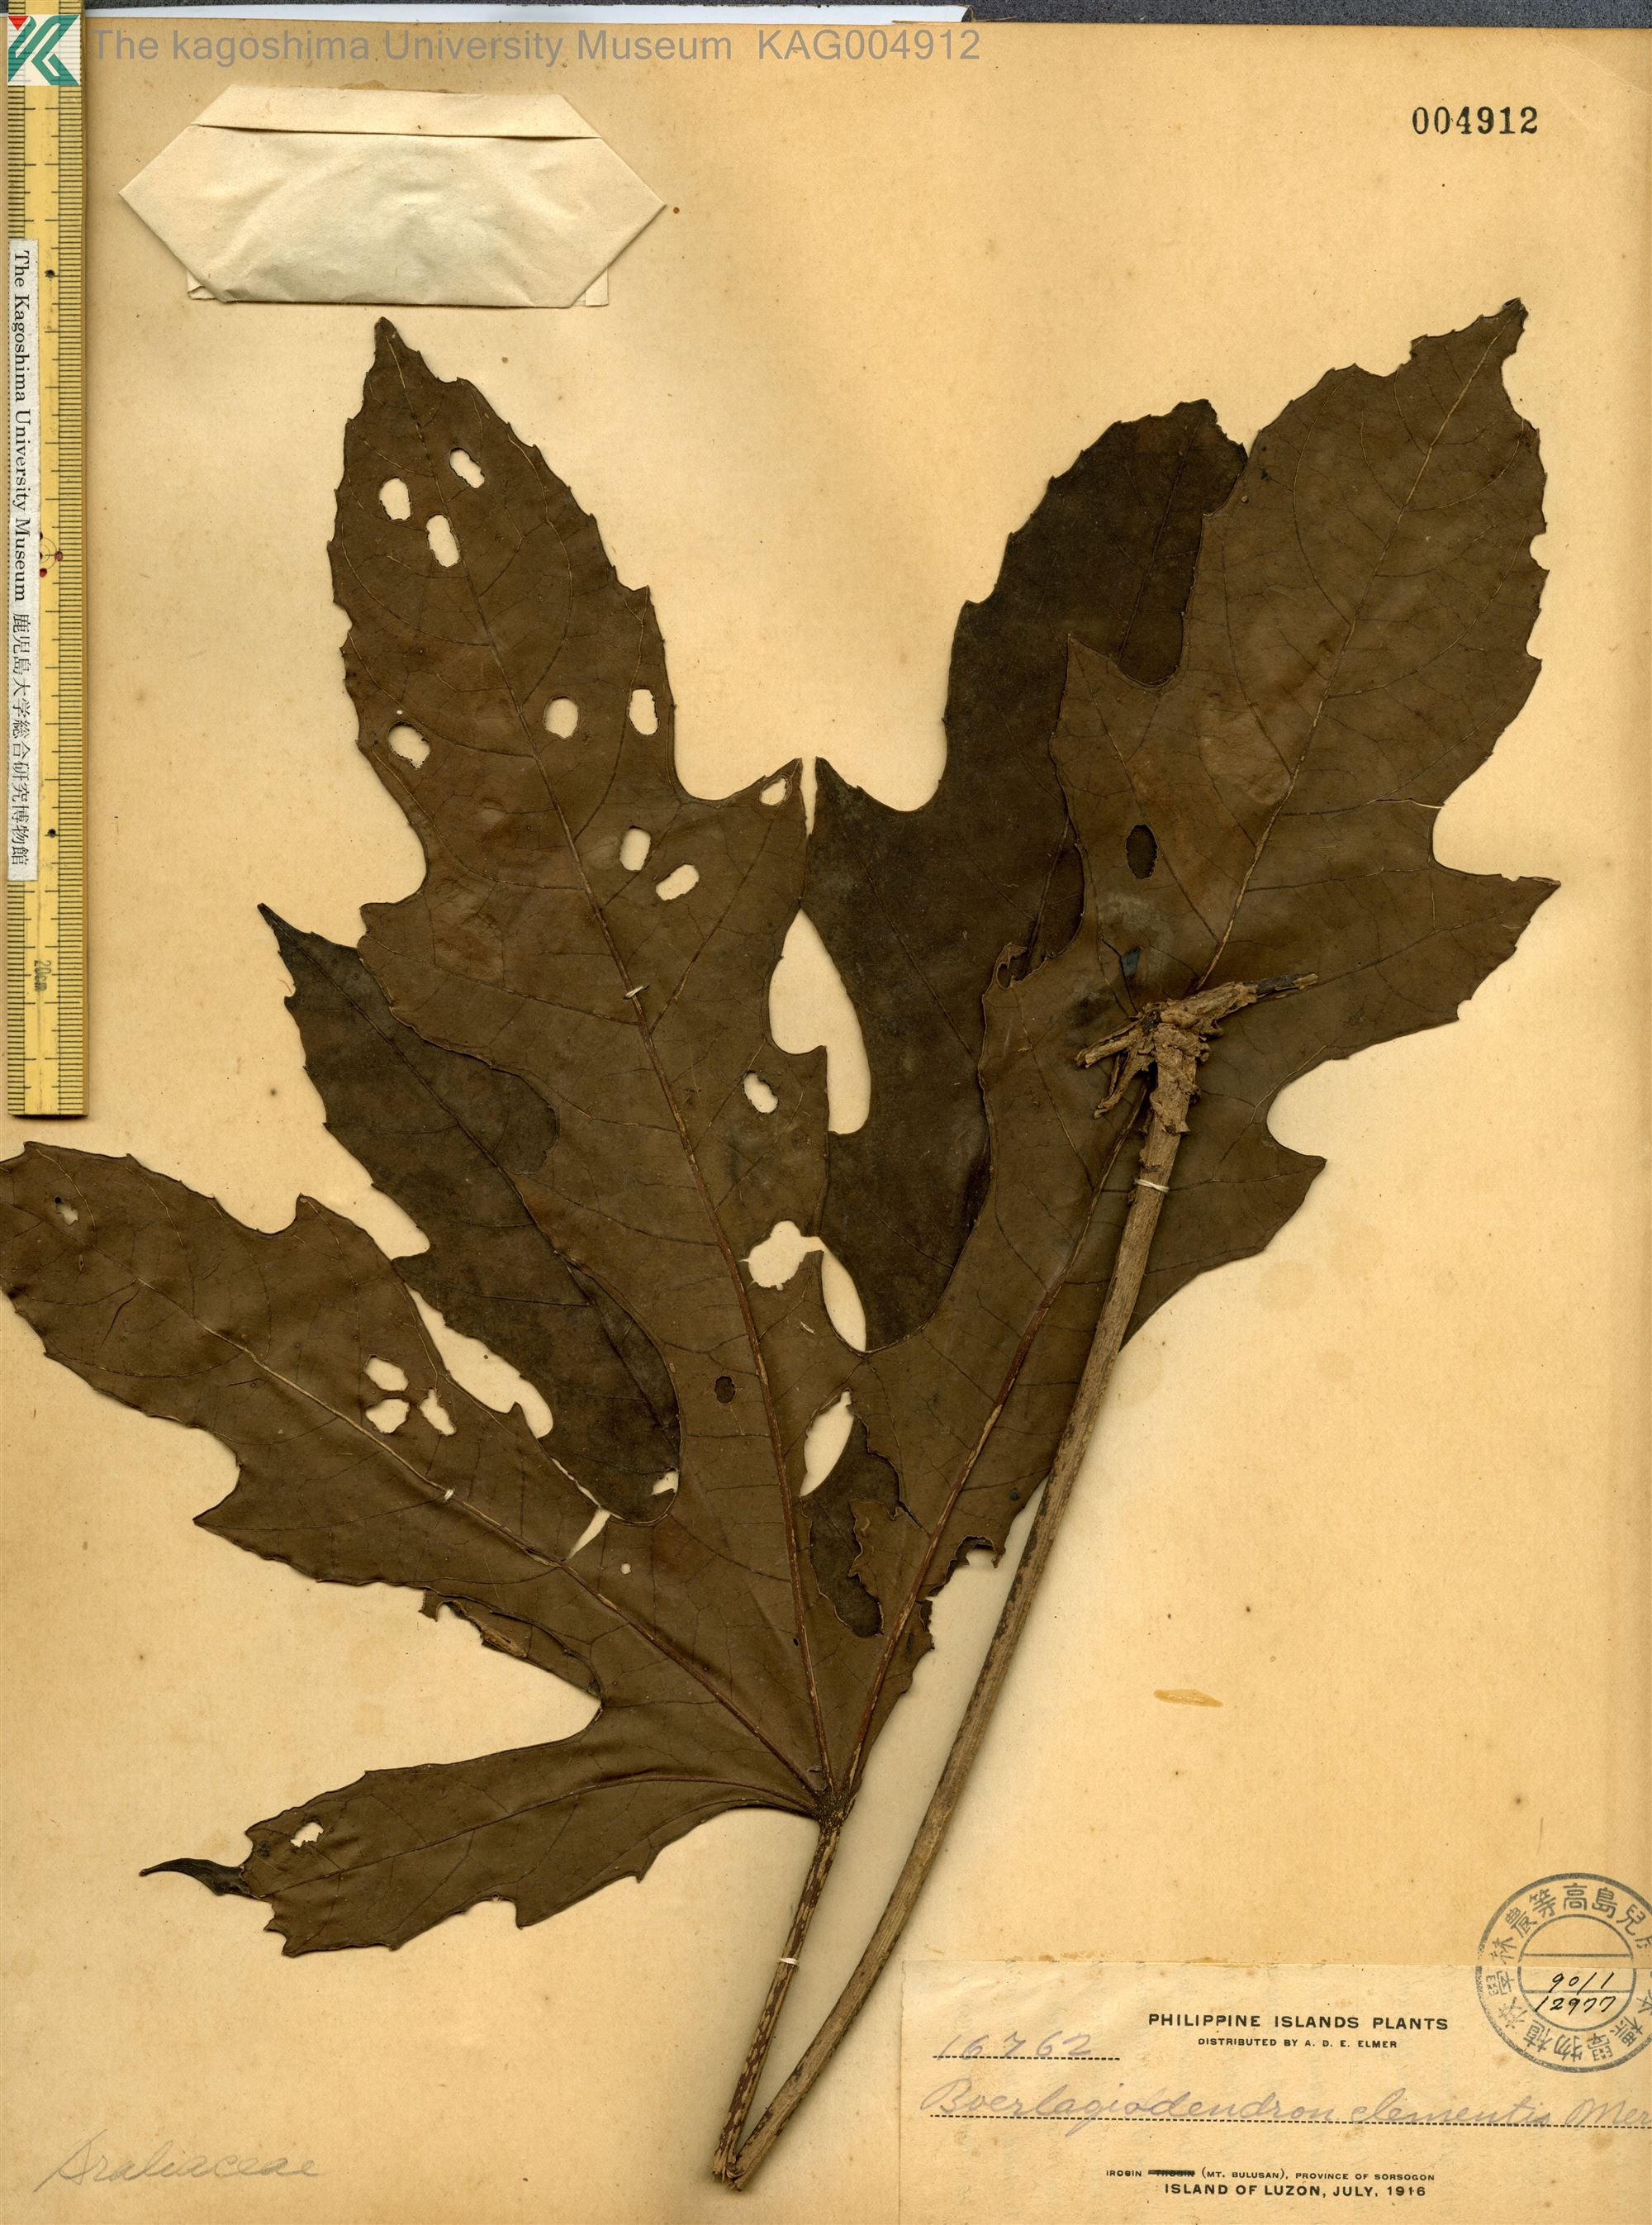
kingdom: Plantae
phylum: Tracheophyta
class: Magnoliopsida
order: Apiales
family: Araliaceae
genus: Osmoxylon
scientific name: Osmoxylon luzoniense
